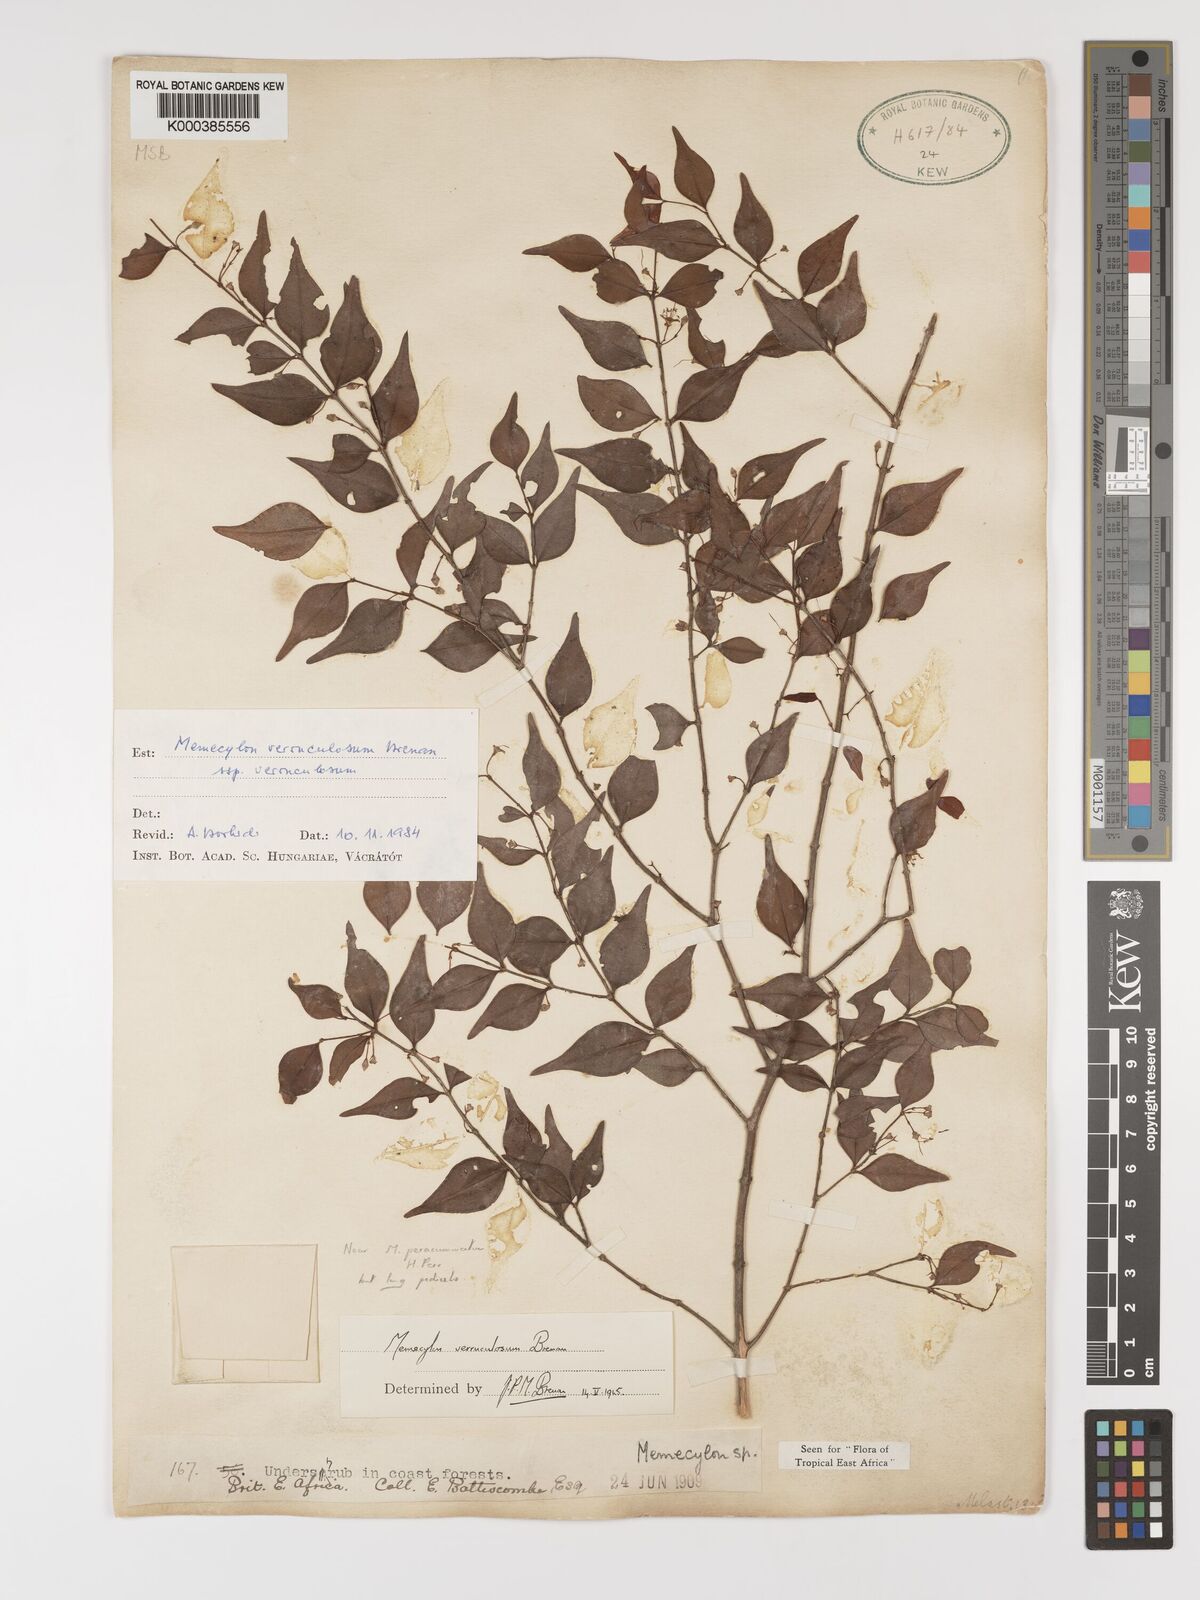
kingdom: Plantae
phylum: Tracheophyta
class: Magnoliopsida
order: Myrtales
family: Melastomataceae
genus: Memecylon
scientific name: Memecylon verruculosum
